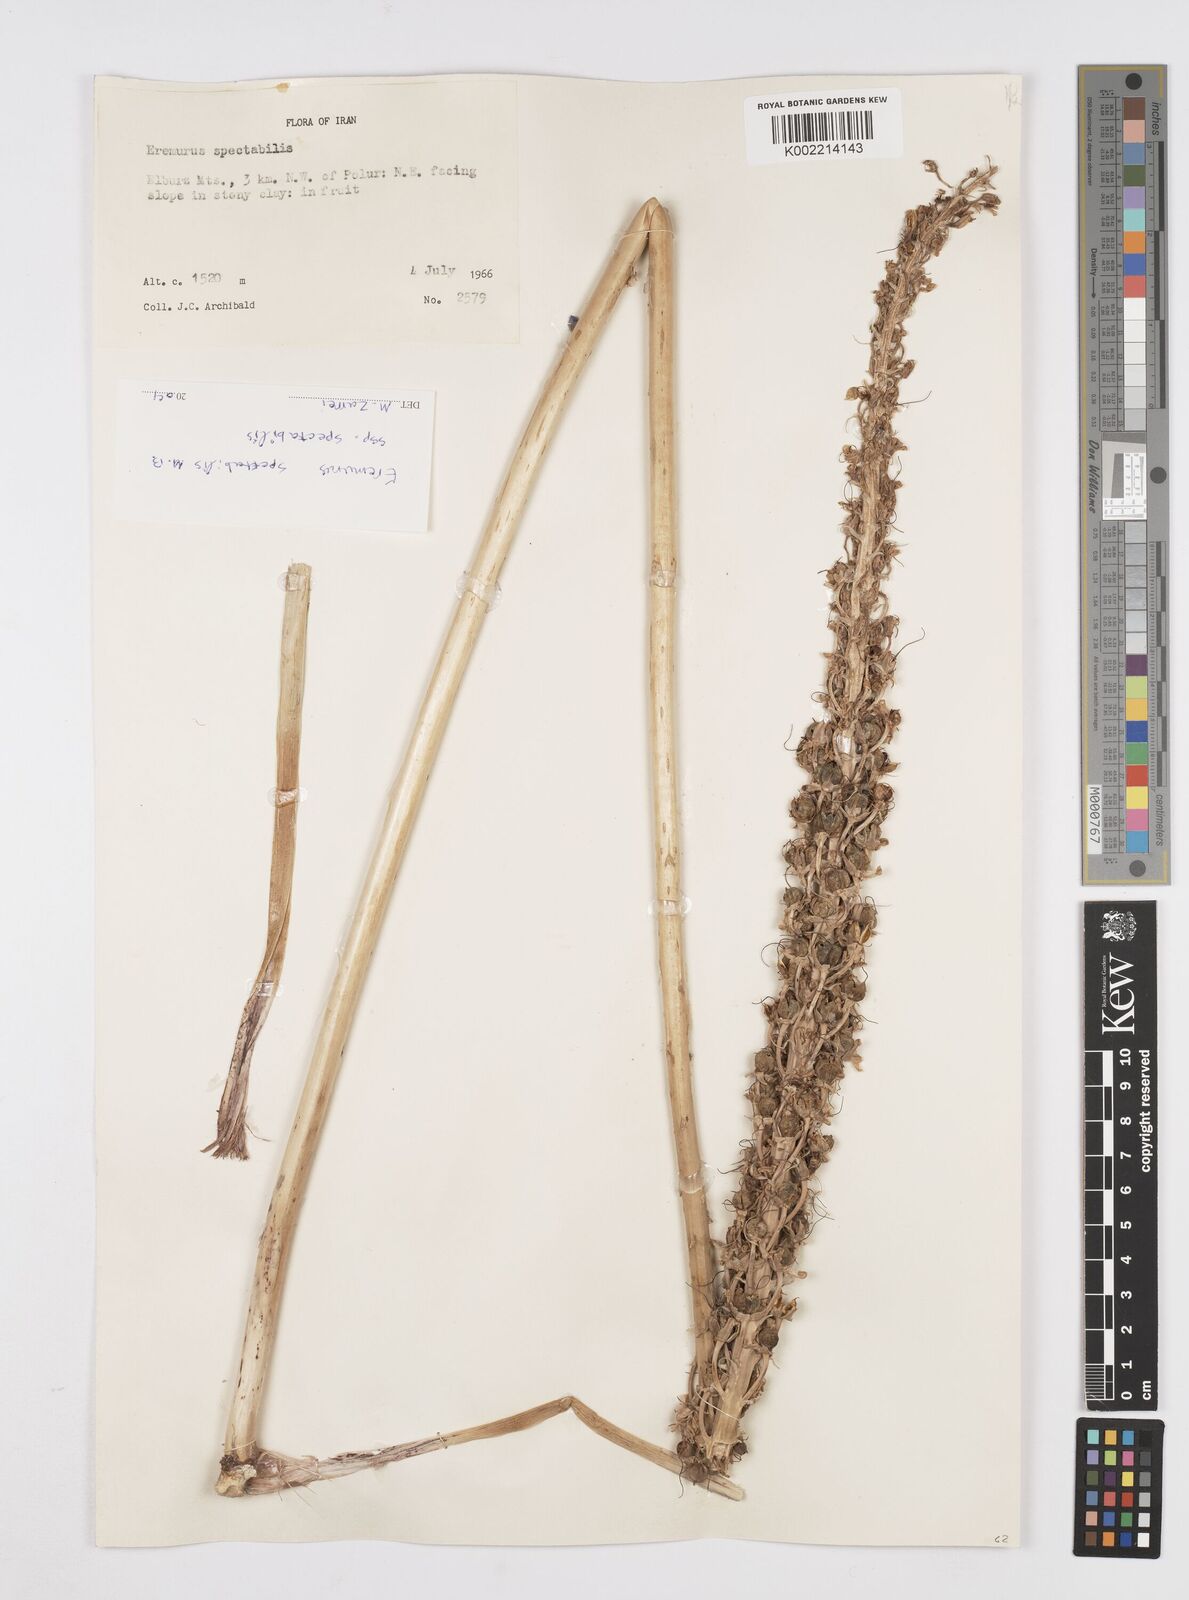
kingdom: Plantae
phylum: Tracheophyta
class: Liliopsida
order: Asparagales
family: Asphodelaceae
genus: Eremurus
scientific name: Eremurus spectabilis
